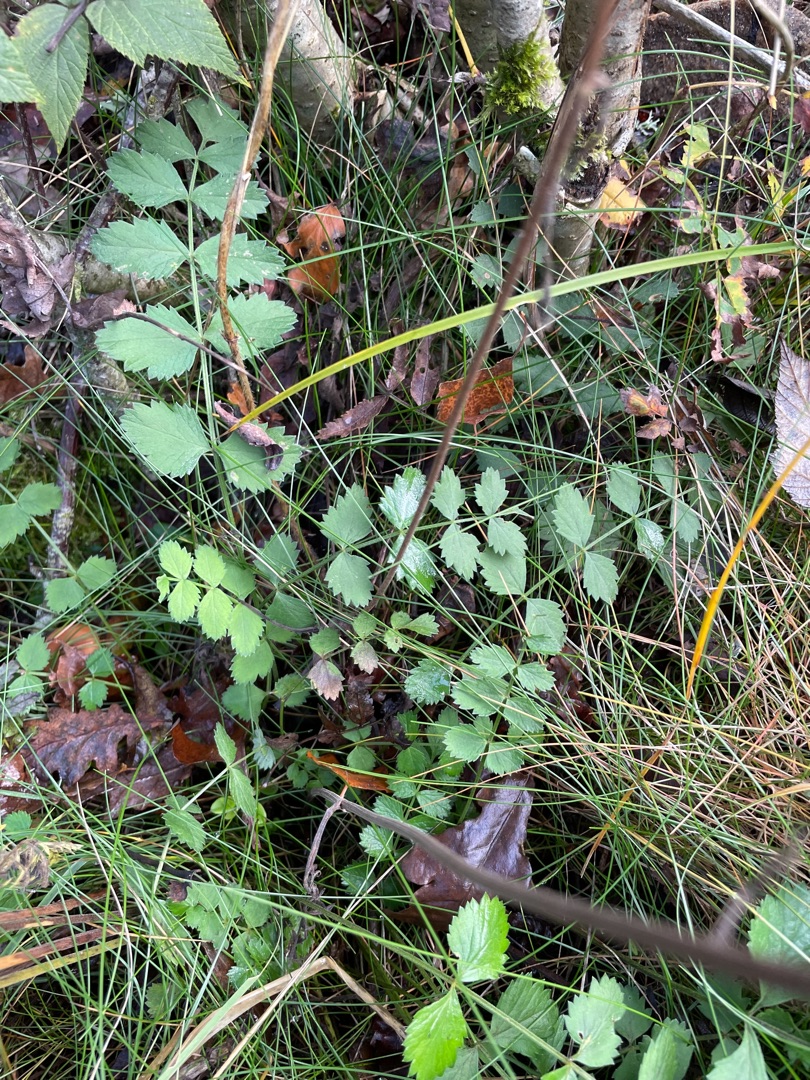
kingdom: Plantae
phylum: Tracheophyta
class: Magnoliopsida
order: Apiales
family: Apiaceae
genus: Pimpinella
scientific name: Pimpinella saxifraga
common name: Almindelig pimpinelle
